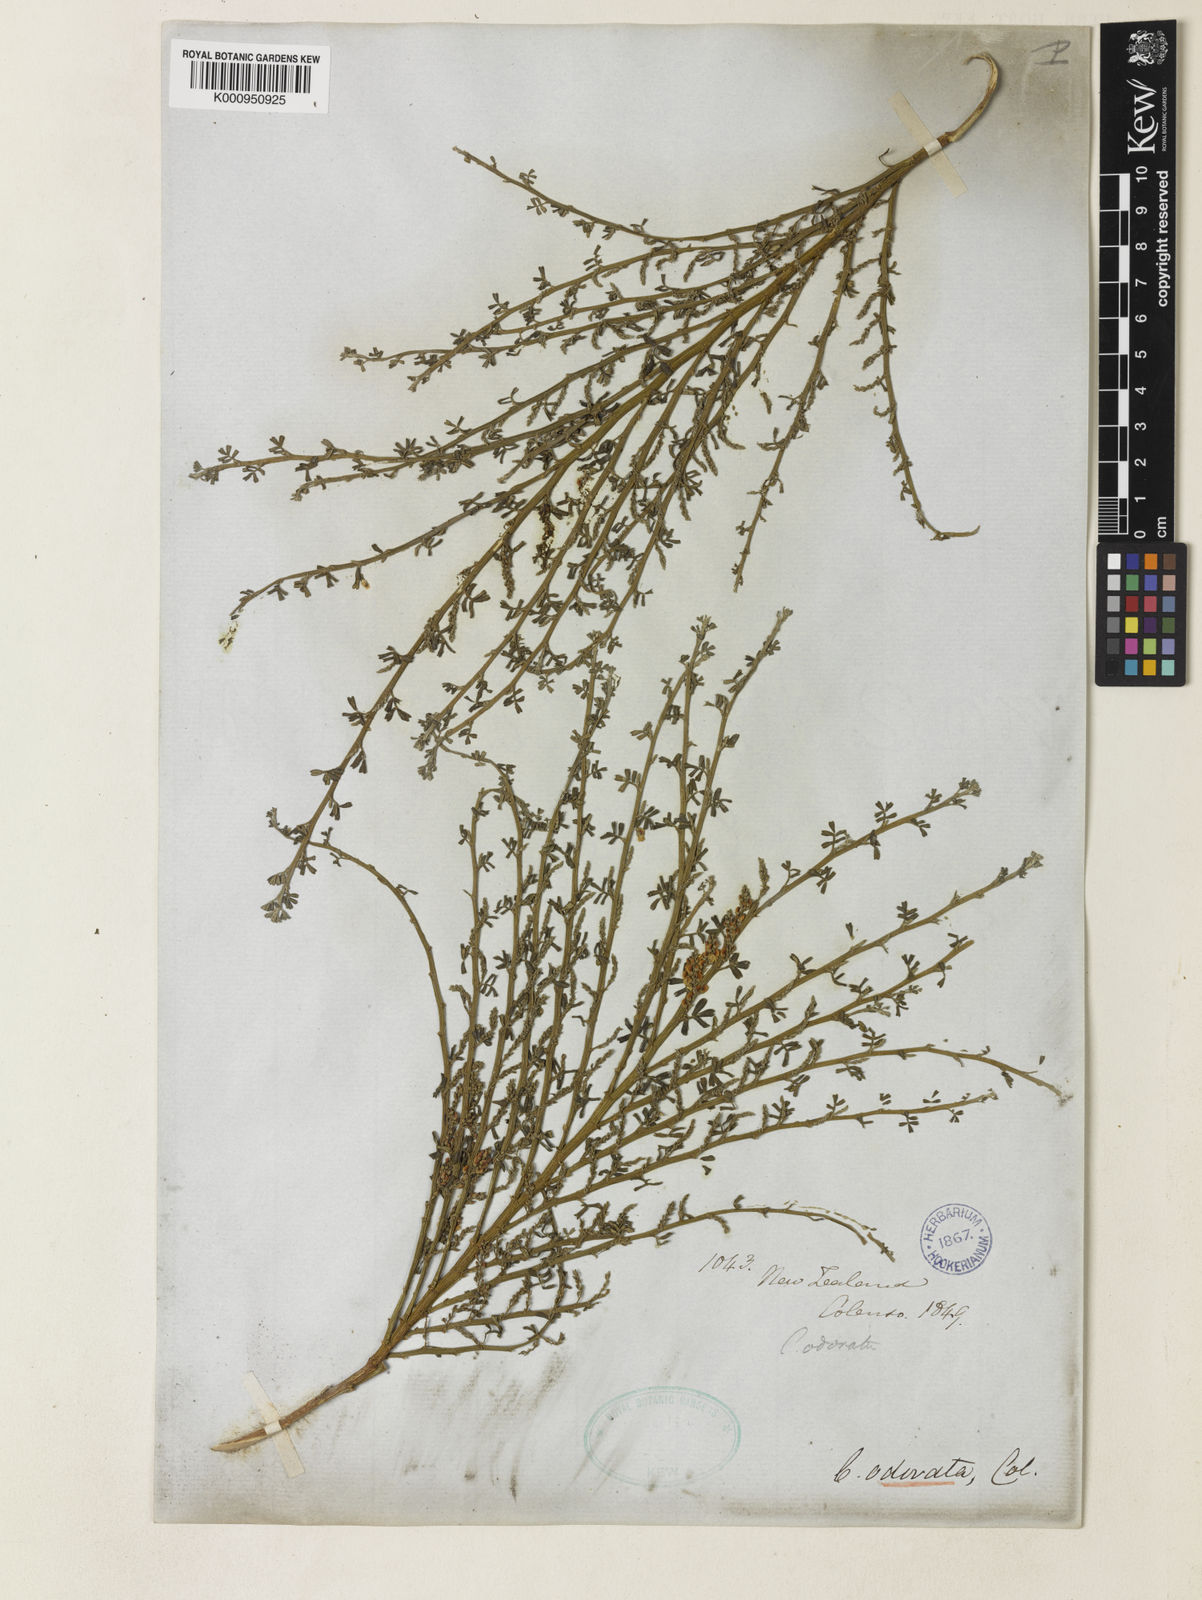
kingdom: Plantae
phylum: Tracheophyta
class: Magnoliopsida
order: Fabales
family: Fabaceae
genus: Carmichaelia
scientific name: Carmichaelia odorata
